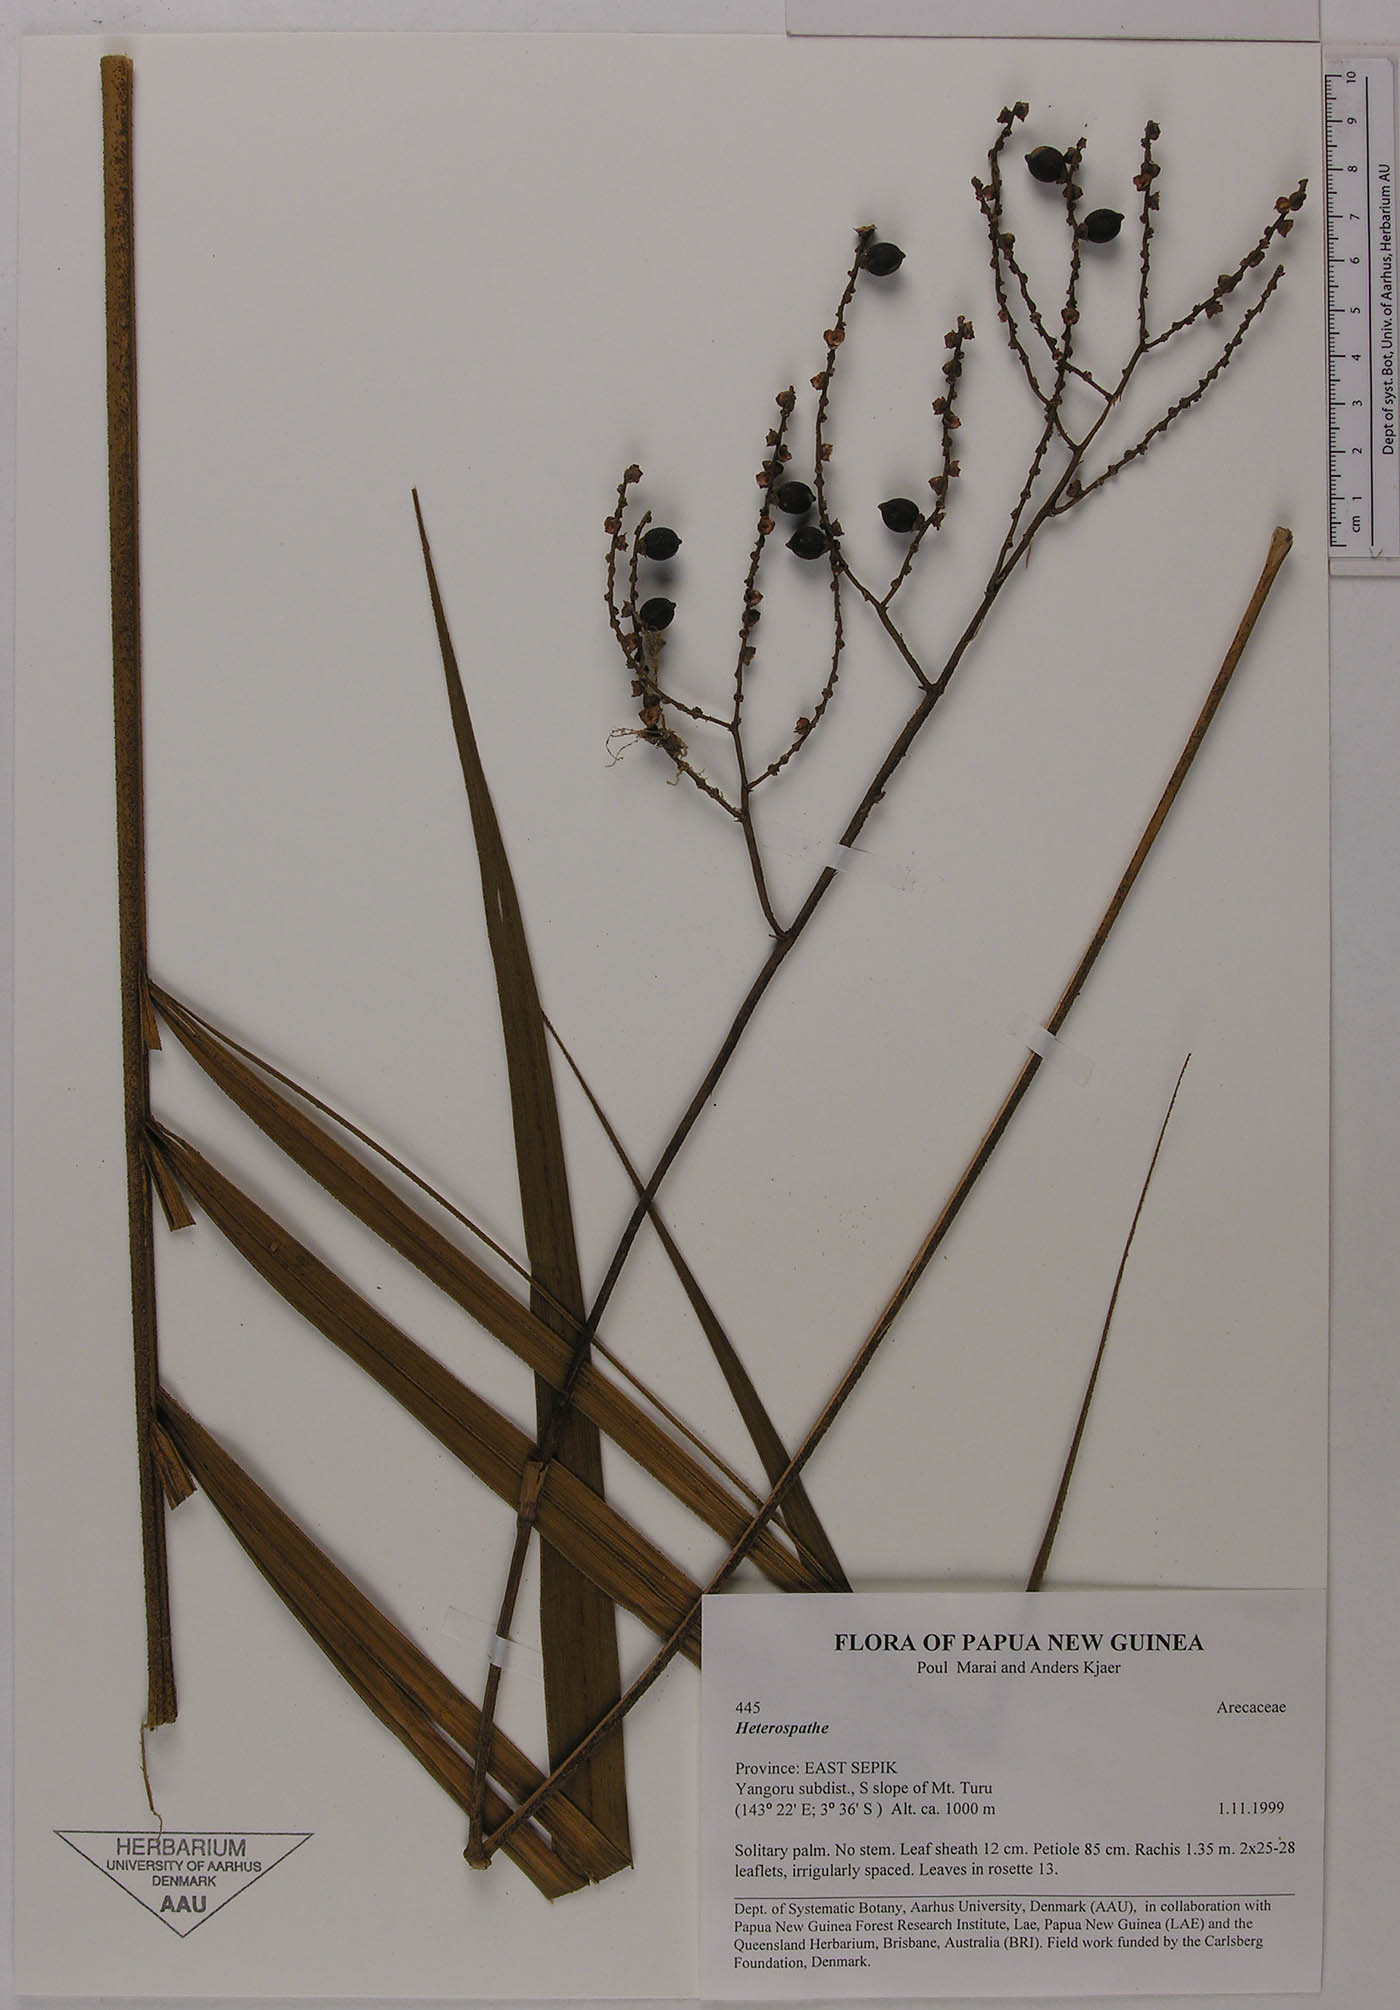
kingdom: Plantae
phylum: Tracheophyta
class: Liliopsida
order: Arecales
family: Arecaceae
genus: Heterospathe
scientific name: Heterospathe elegans
